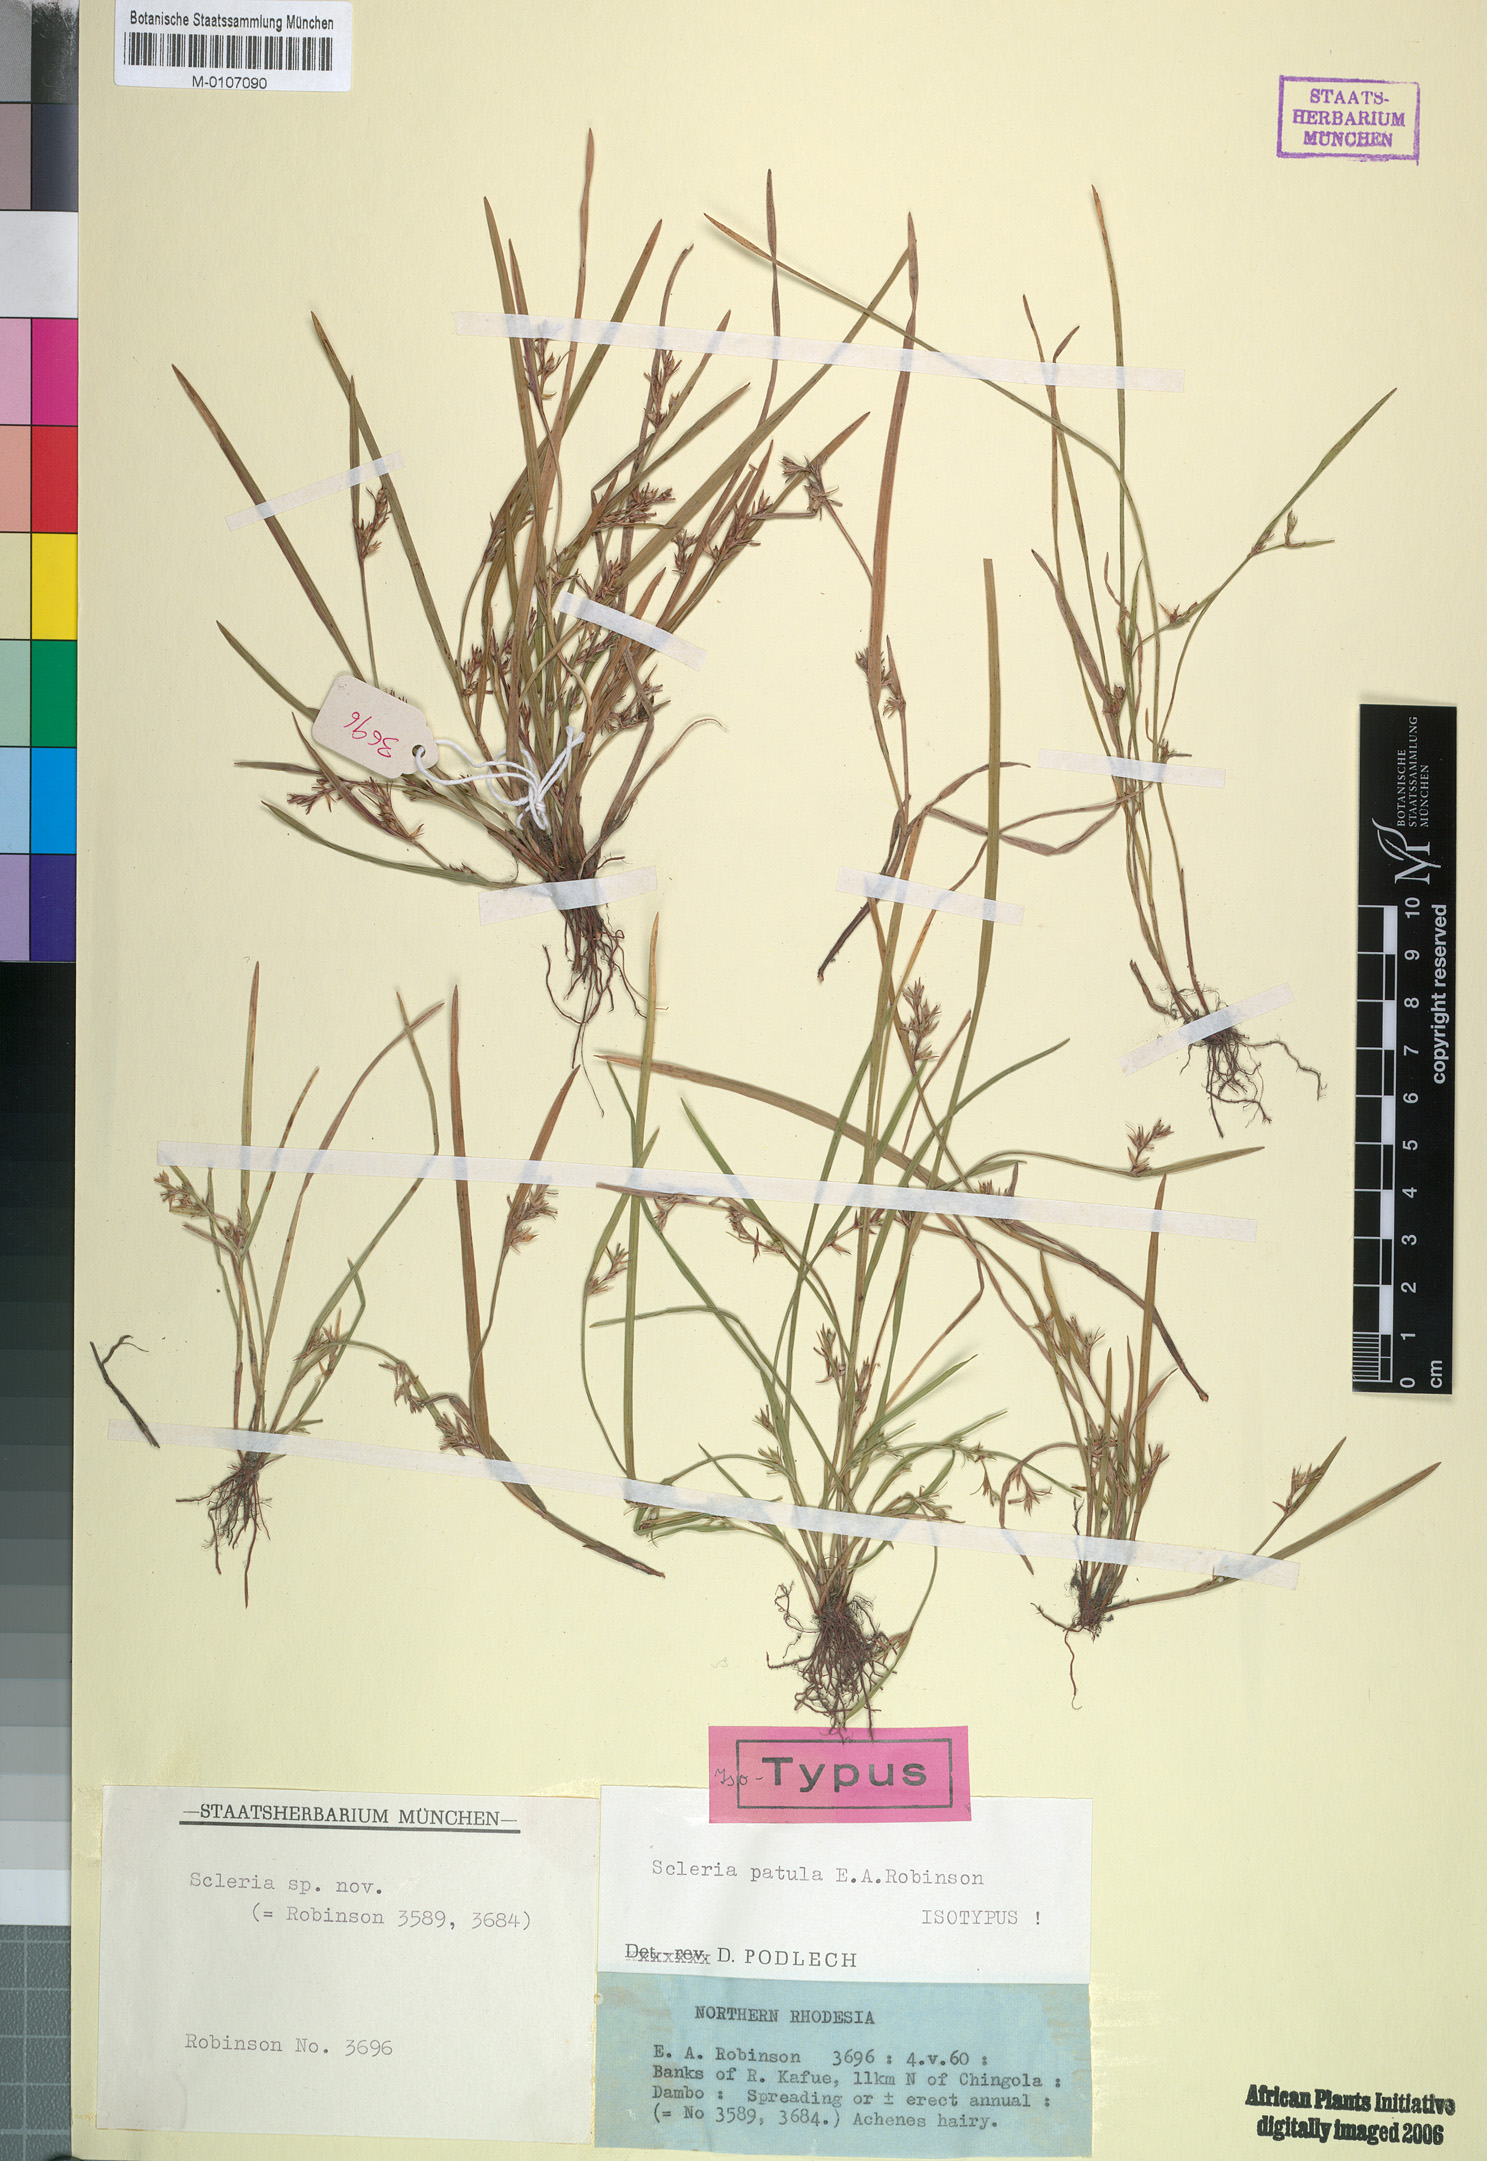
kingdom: Plantae
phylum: Tracheophyta
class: Liliopsida
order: Poales
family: Cyperaceae
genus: Scleria
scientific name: Scleria patula
